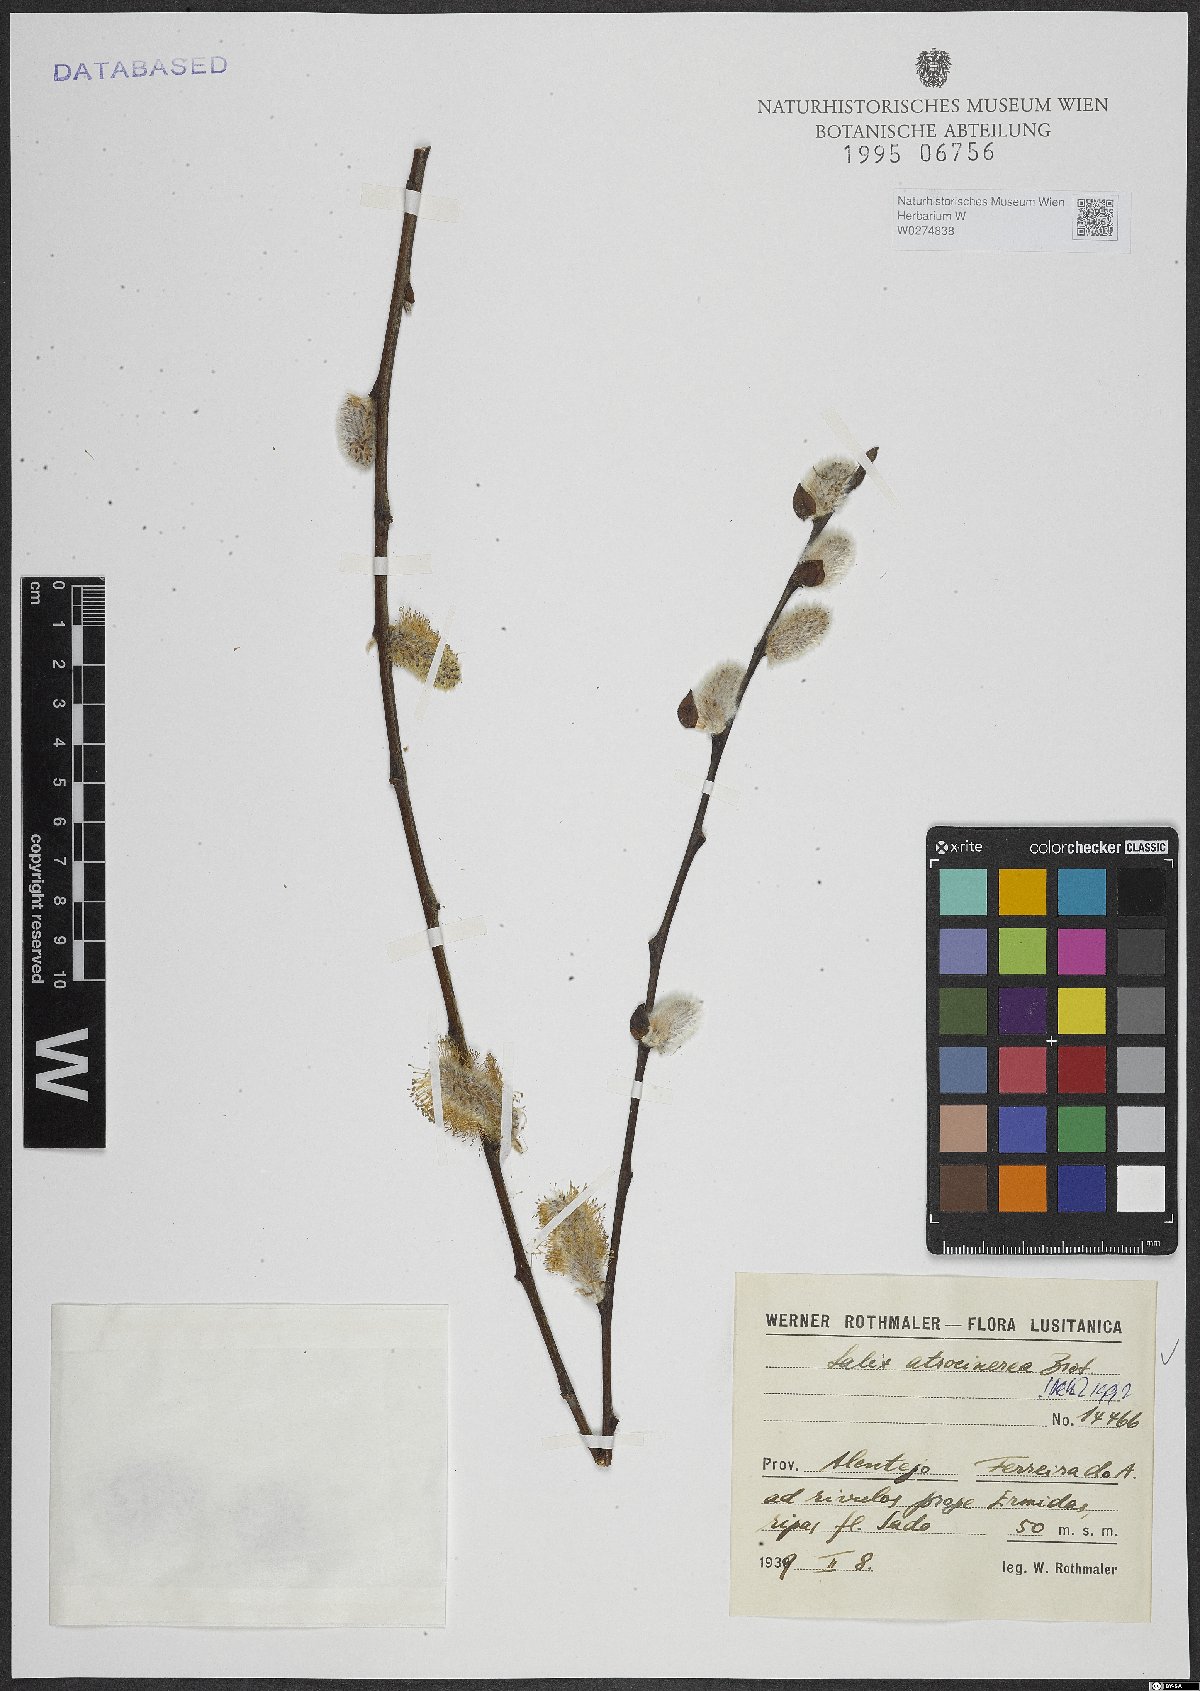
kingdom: Plantae
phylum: Tracheophyta
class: Magnoliopsida
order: Malpighiales
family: Salicaceae
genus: Salix
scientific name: Salix atrocinerea
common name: Rusty willow
